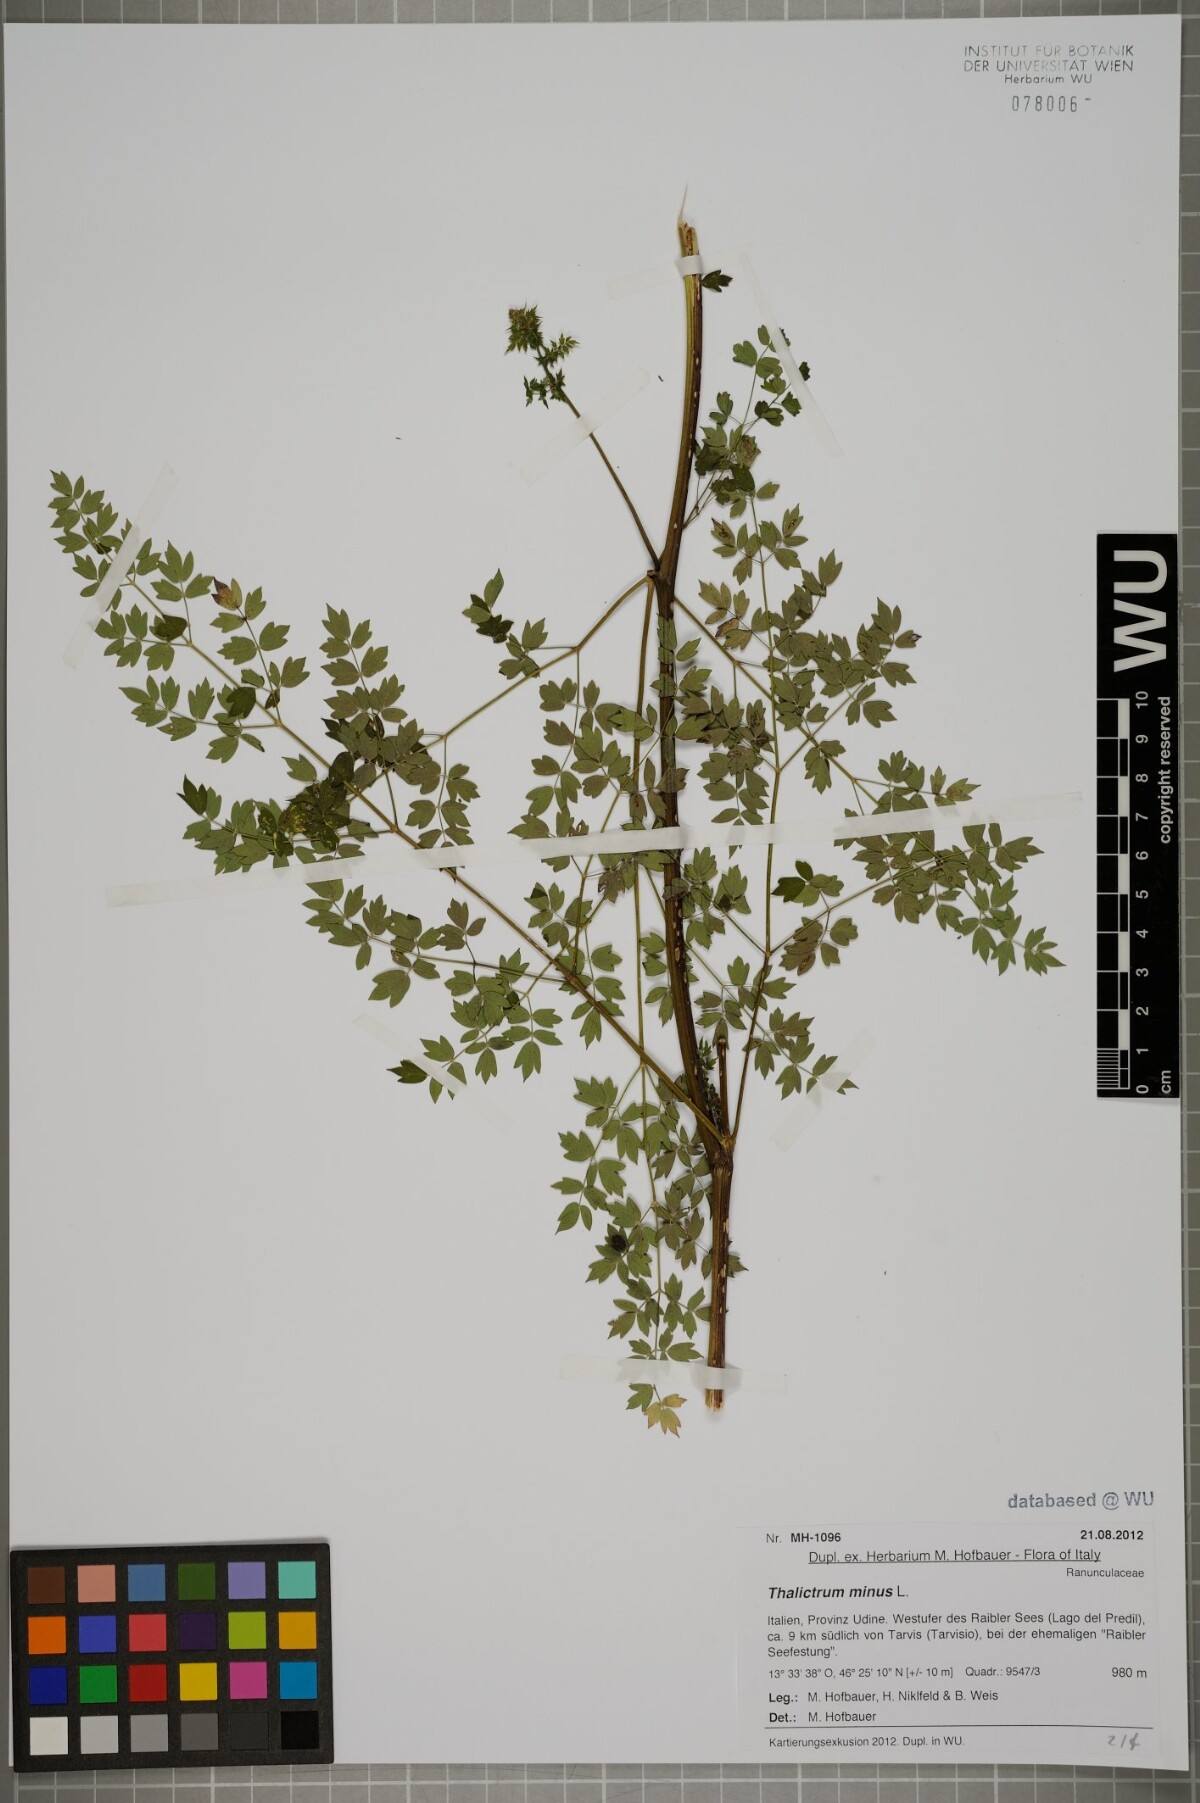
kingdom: Plantae
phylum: Tracheophyta
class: Magnoliopsida
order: Ranunculales
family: Ranunculaceae
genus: Thalictrum
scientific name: Thalictrum minus
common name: Lesser meadow-rue
